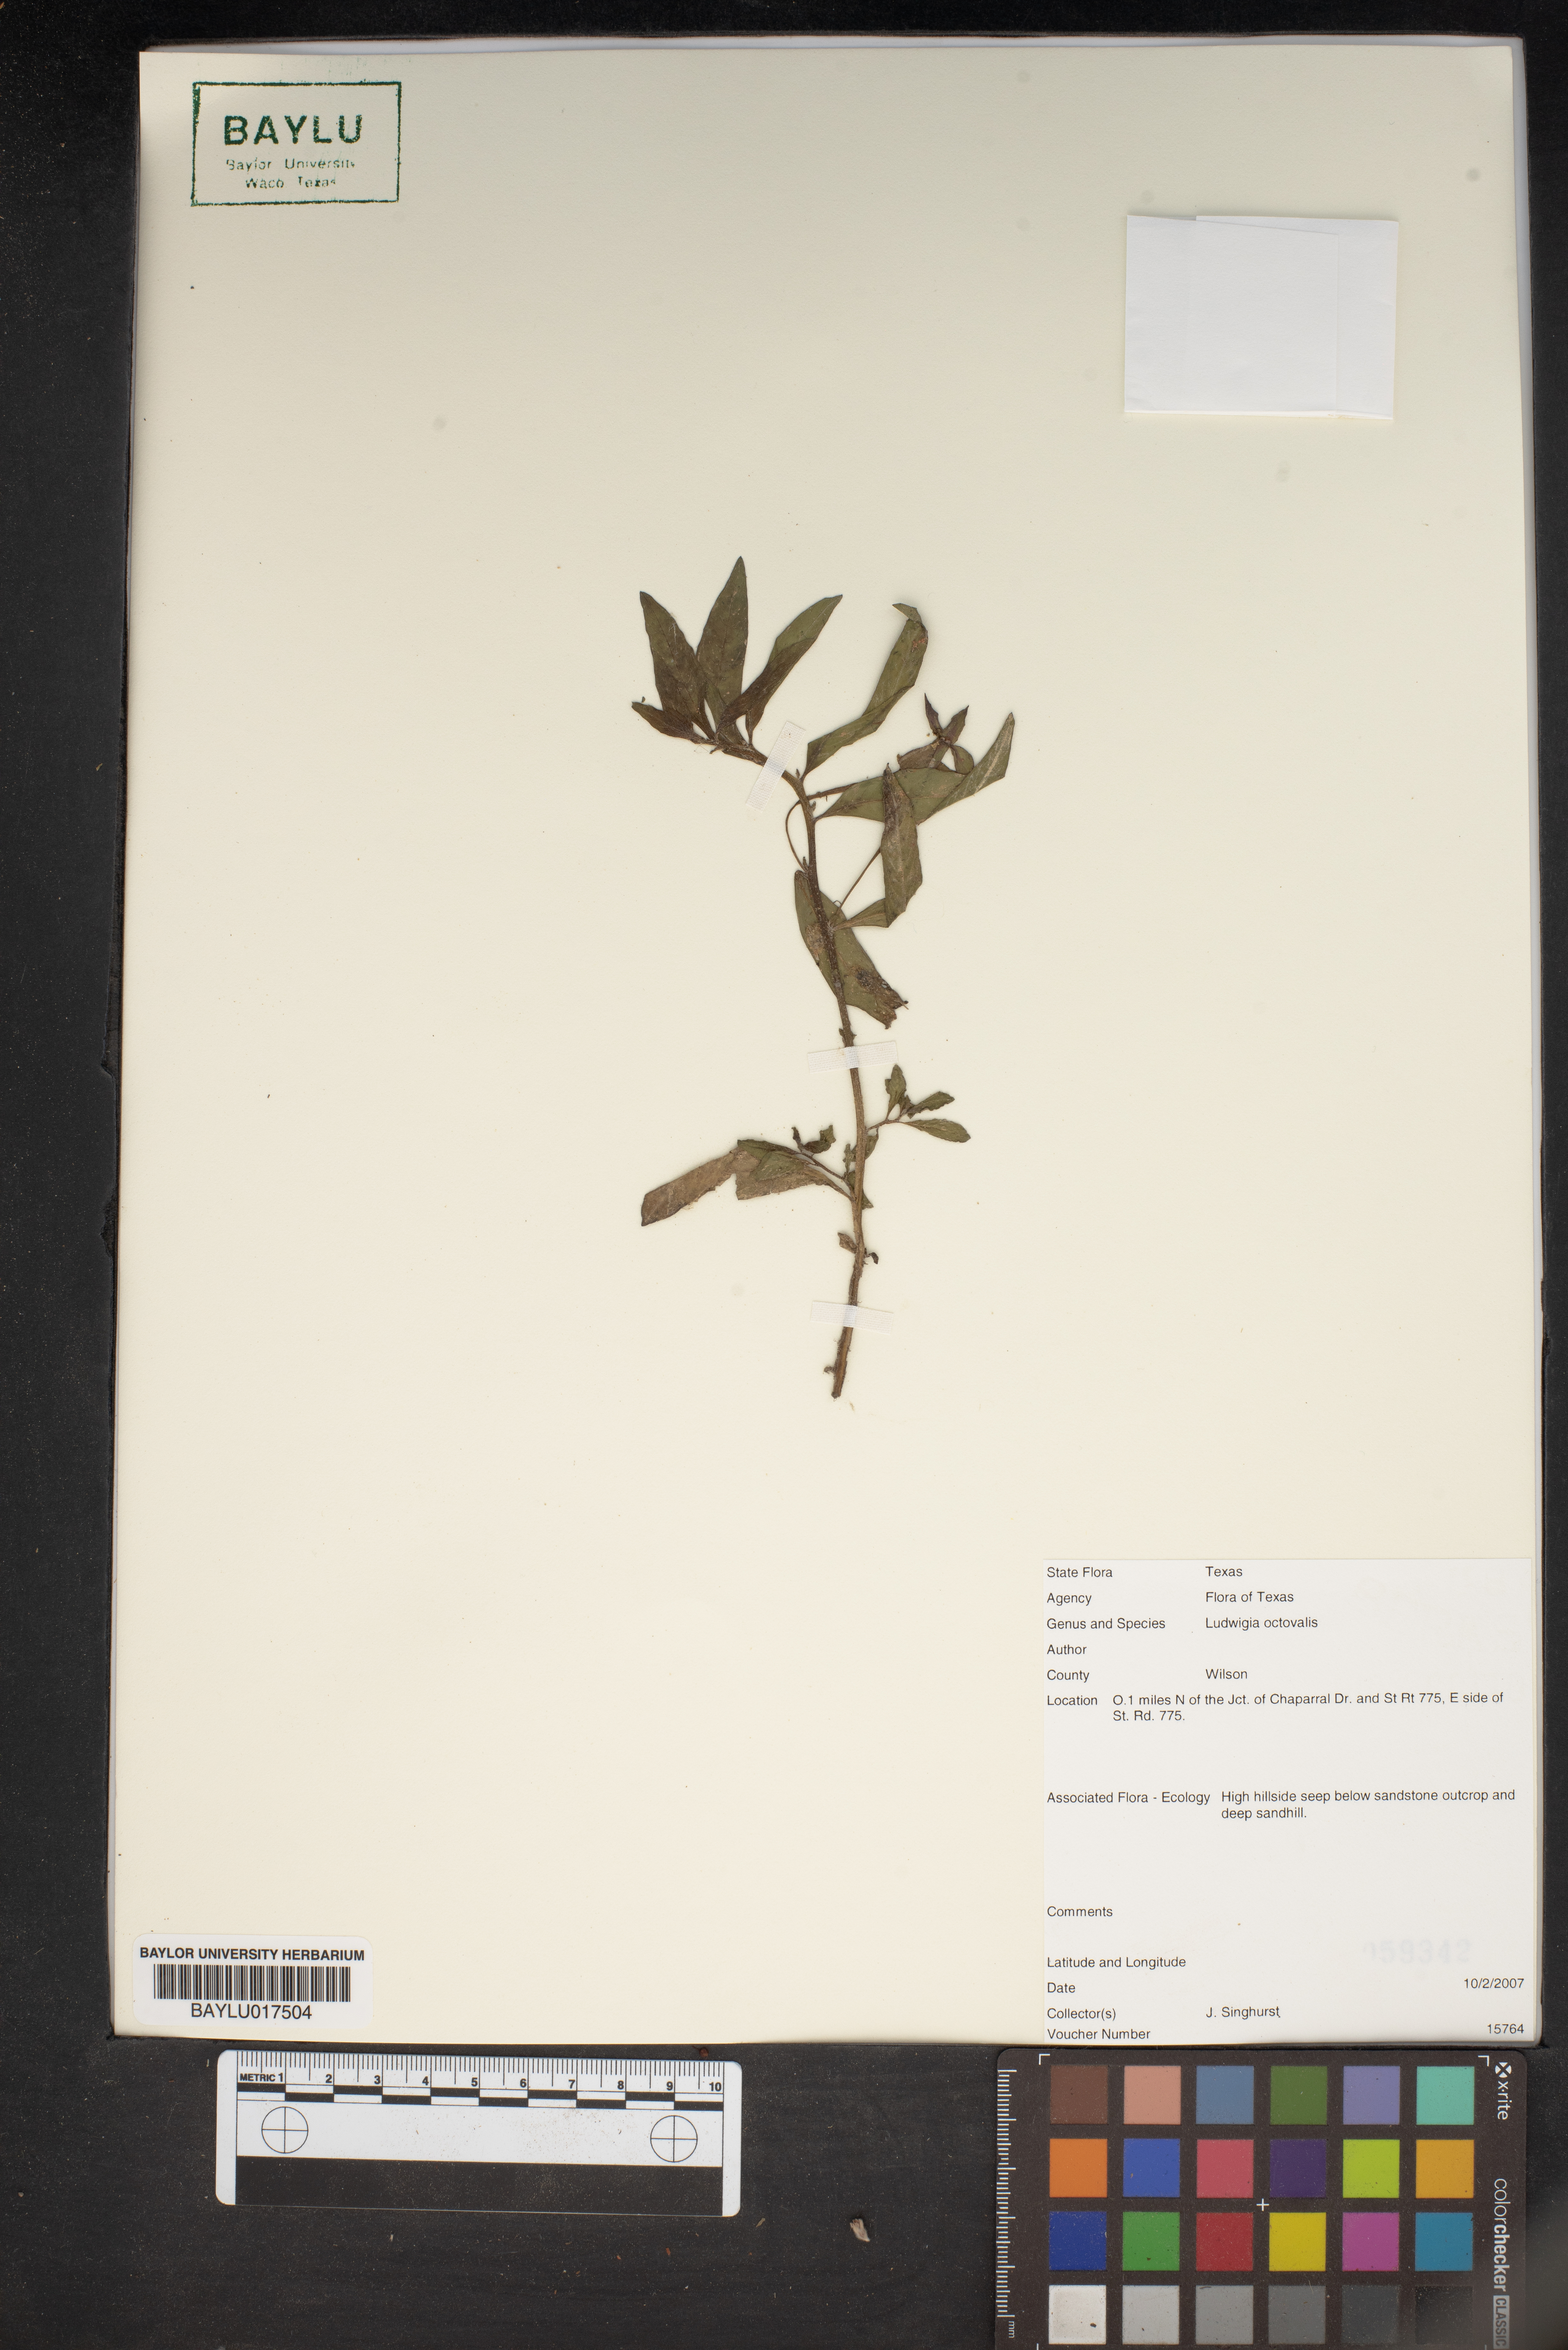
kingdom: Plantae
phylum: Tracheophyta
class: Magnoliopsida
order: Myrtales
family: Onagraceae
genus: Ludwigia
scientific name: Ludwigia octovalvis
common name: Water-primrose
